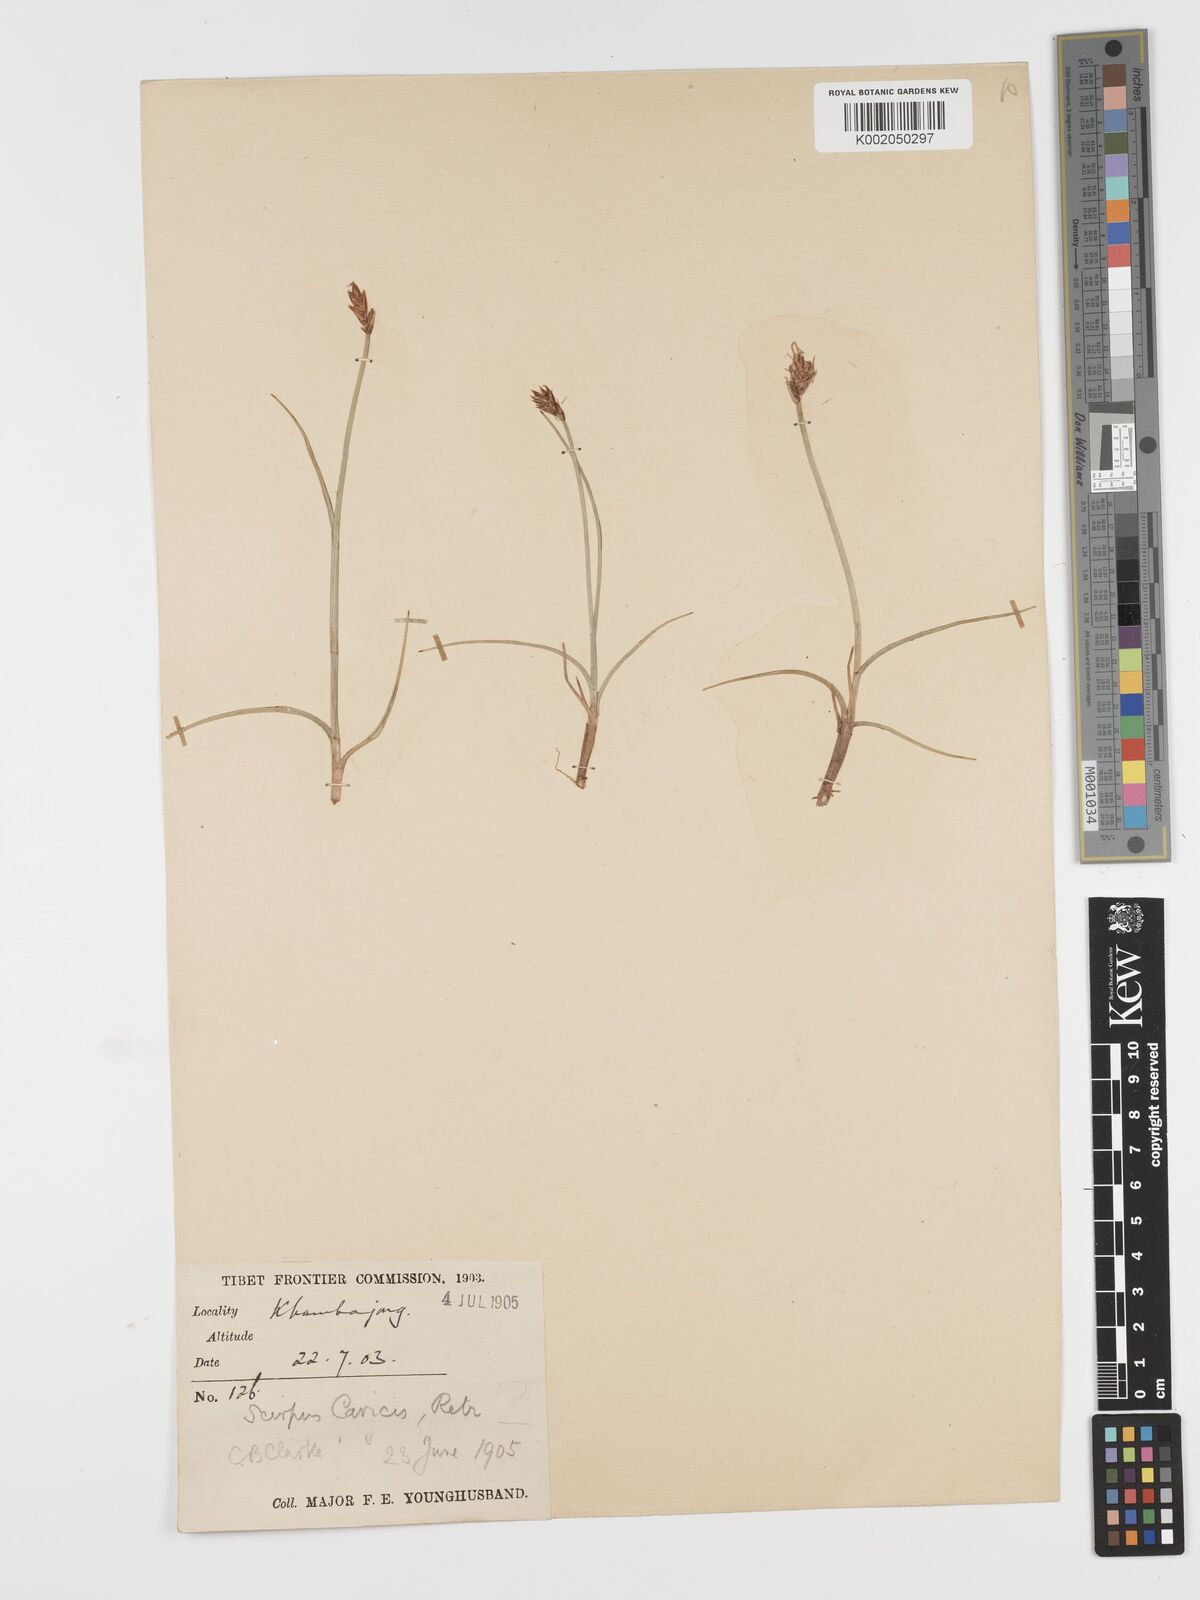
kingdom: Plantae
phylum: Tracheophyta
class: Liliopsida
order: Poales
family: Cyperaceae
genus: Blysmus
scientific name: Blysmus compressus
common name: Flat-sedge
